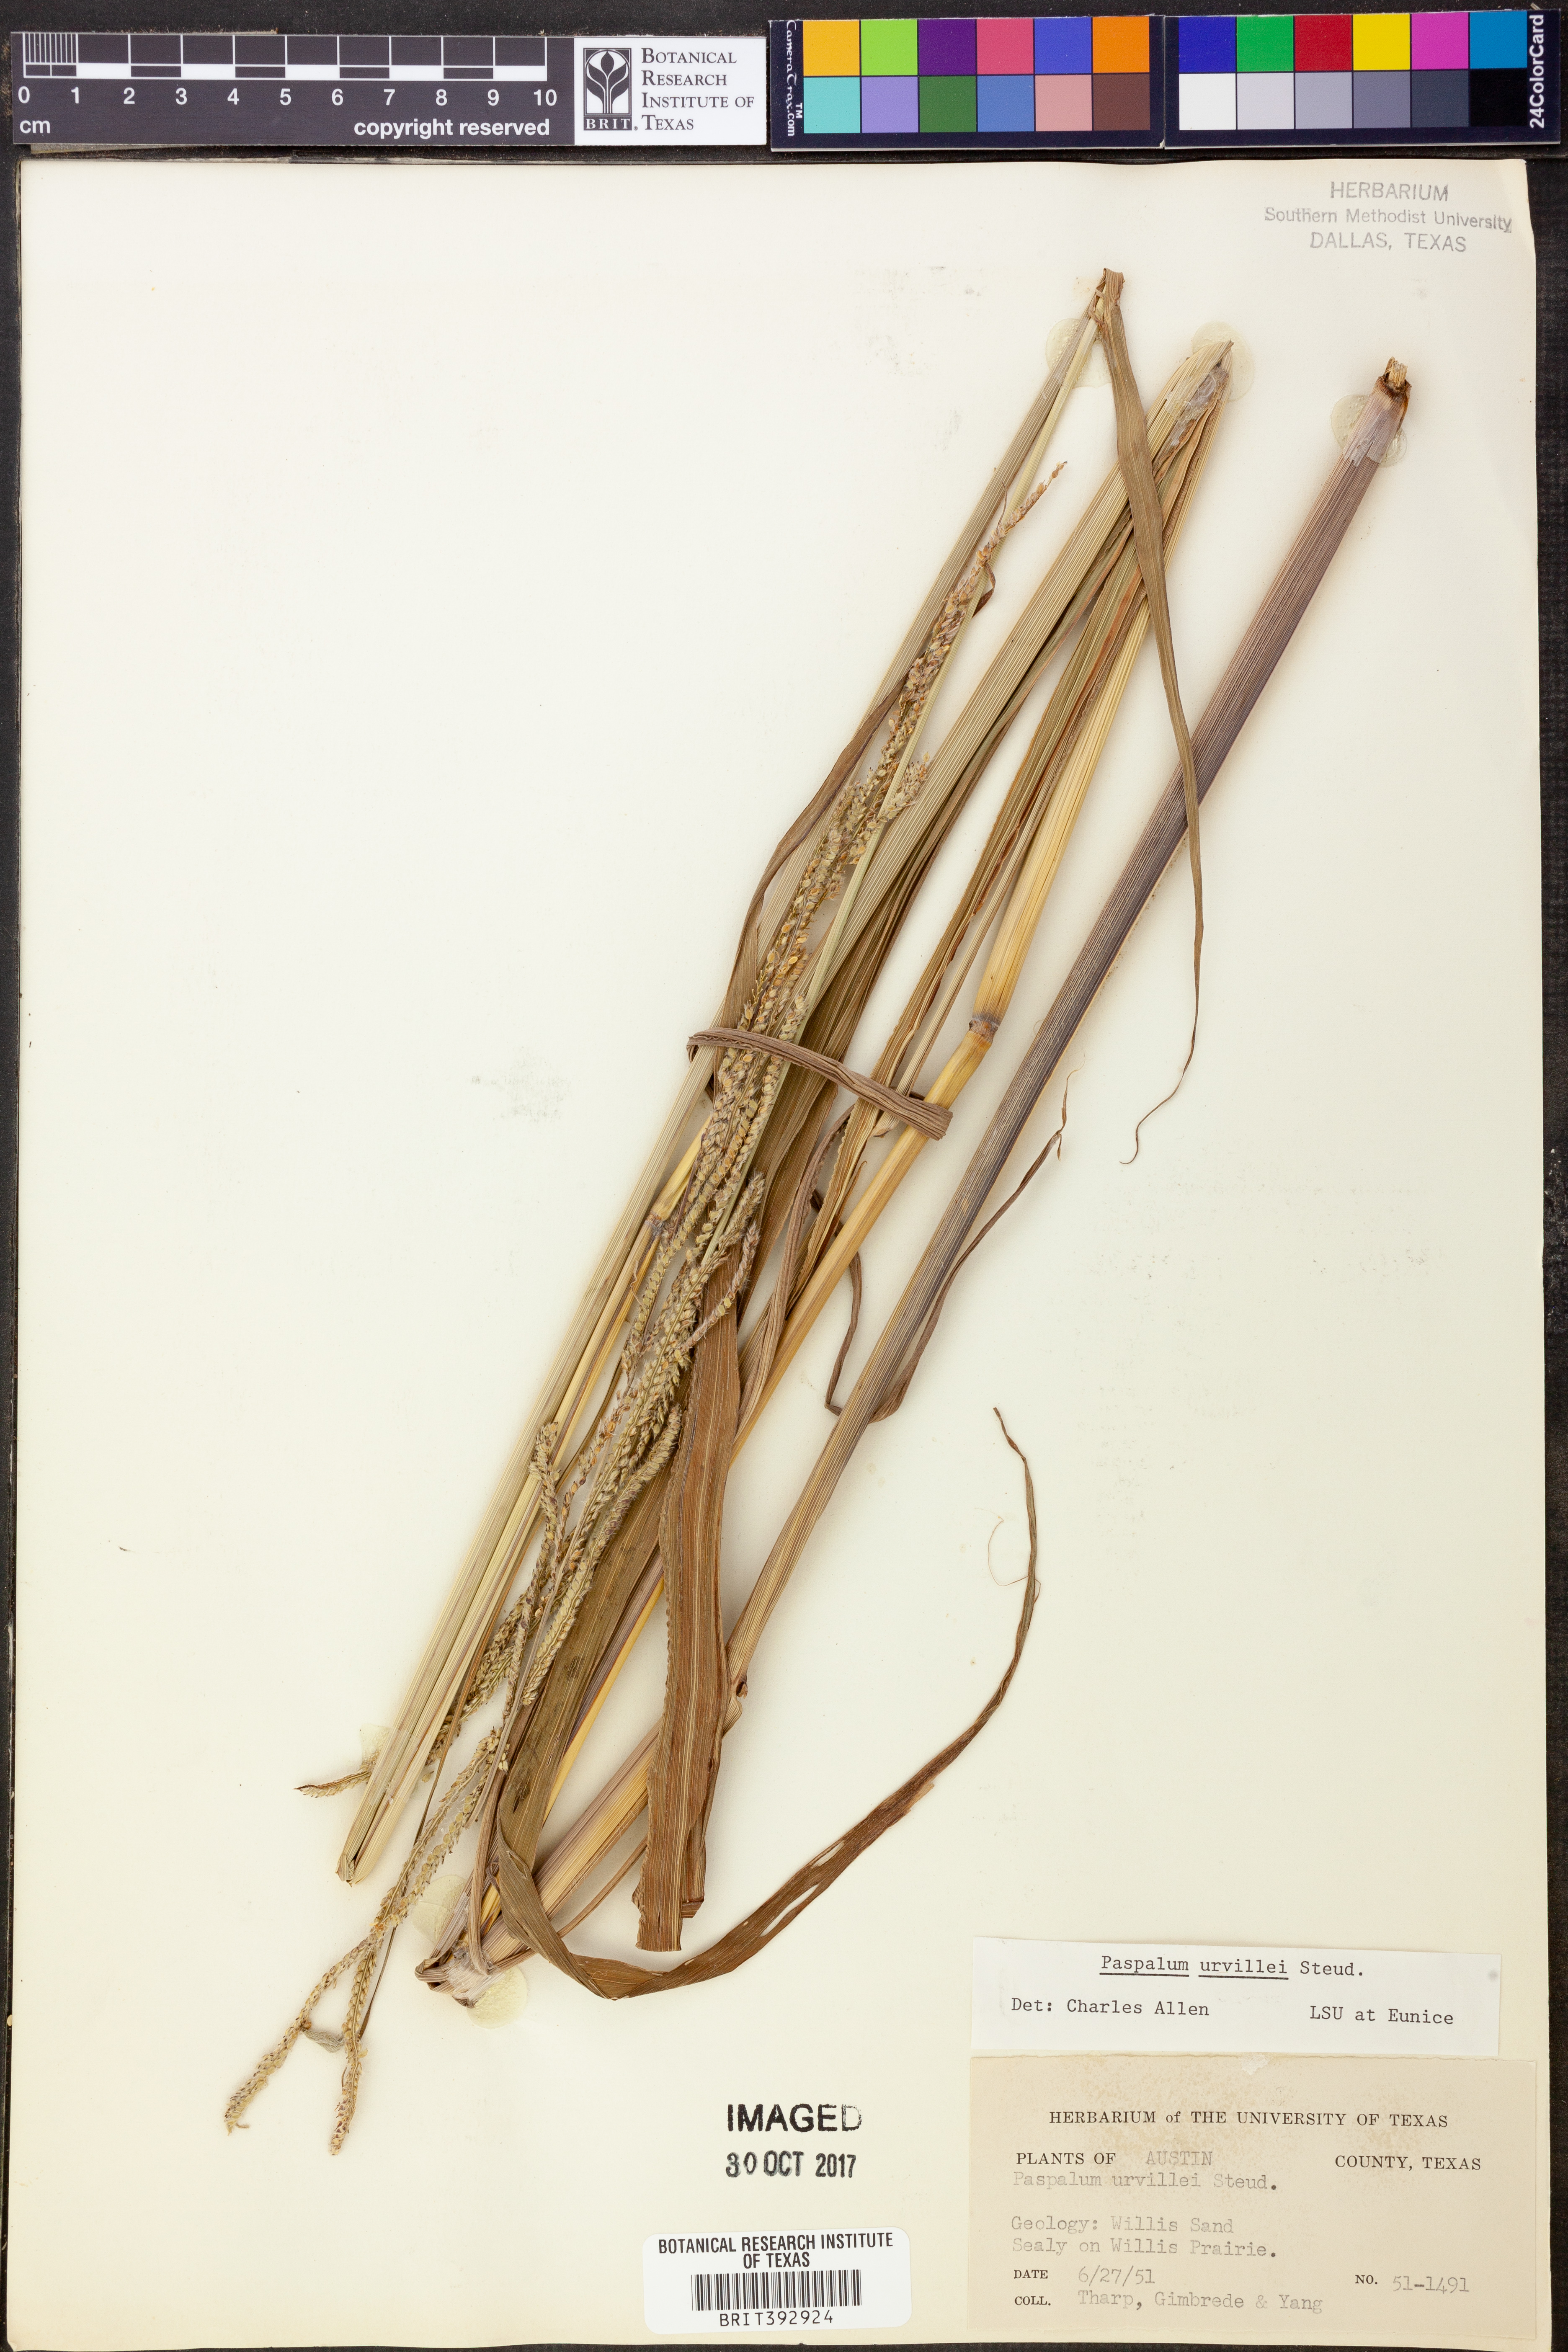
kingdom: Plantae
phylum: Tracheophyta
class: Liliopsida
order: Poales
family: Poaceae
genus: Paspalum
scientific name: Paspalum urvillei
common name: Vasey's grass
